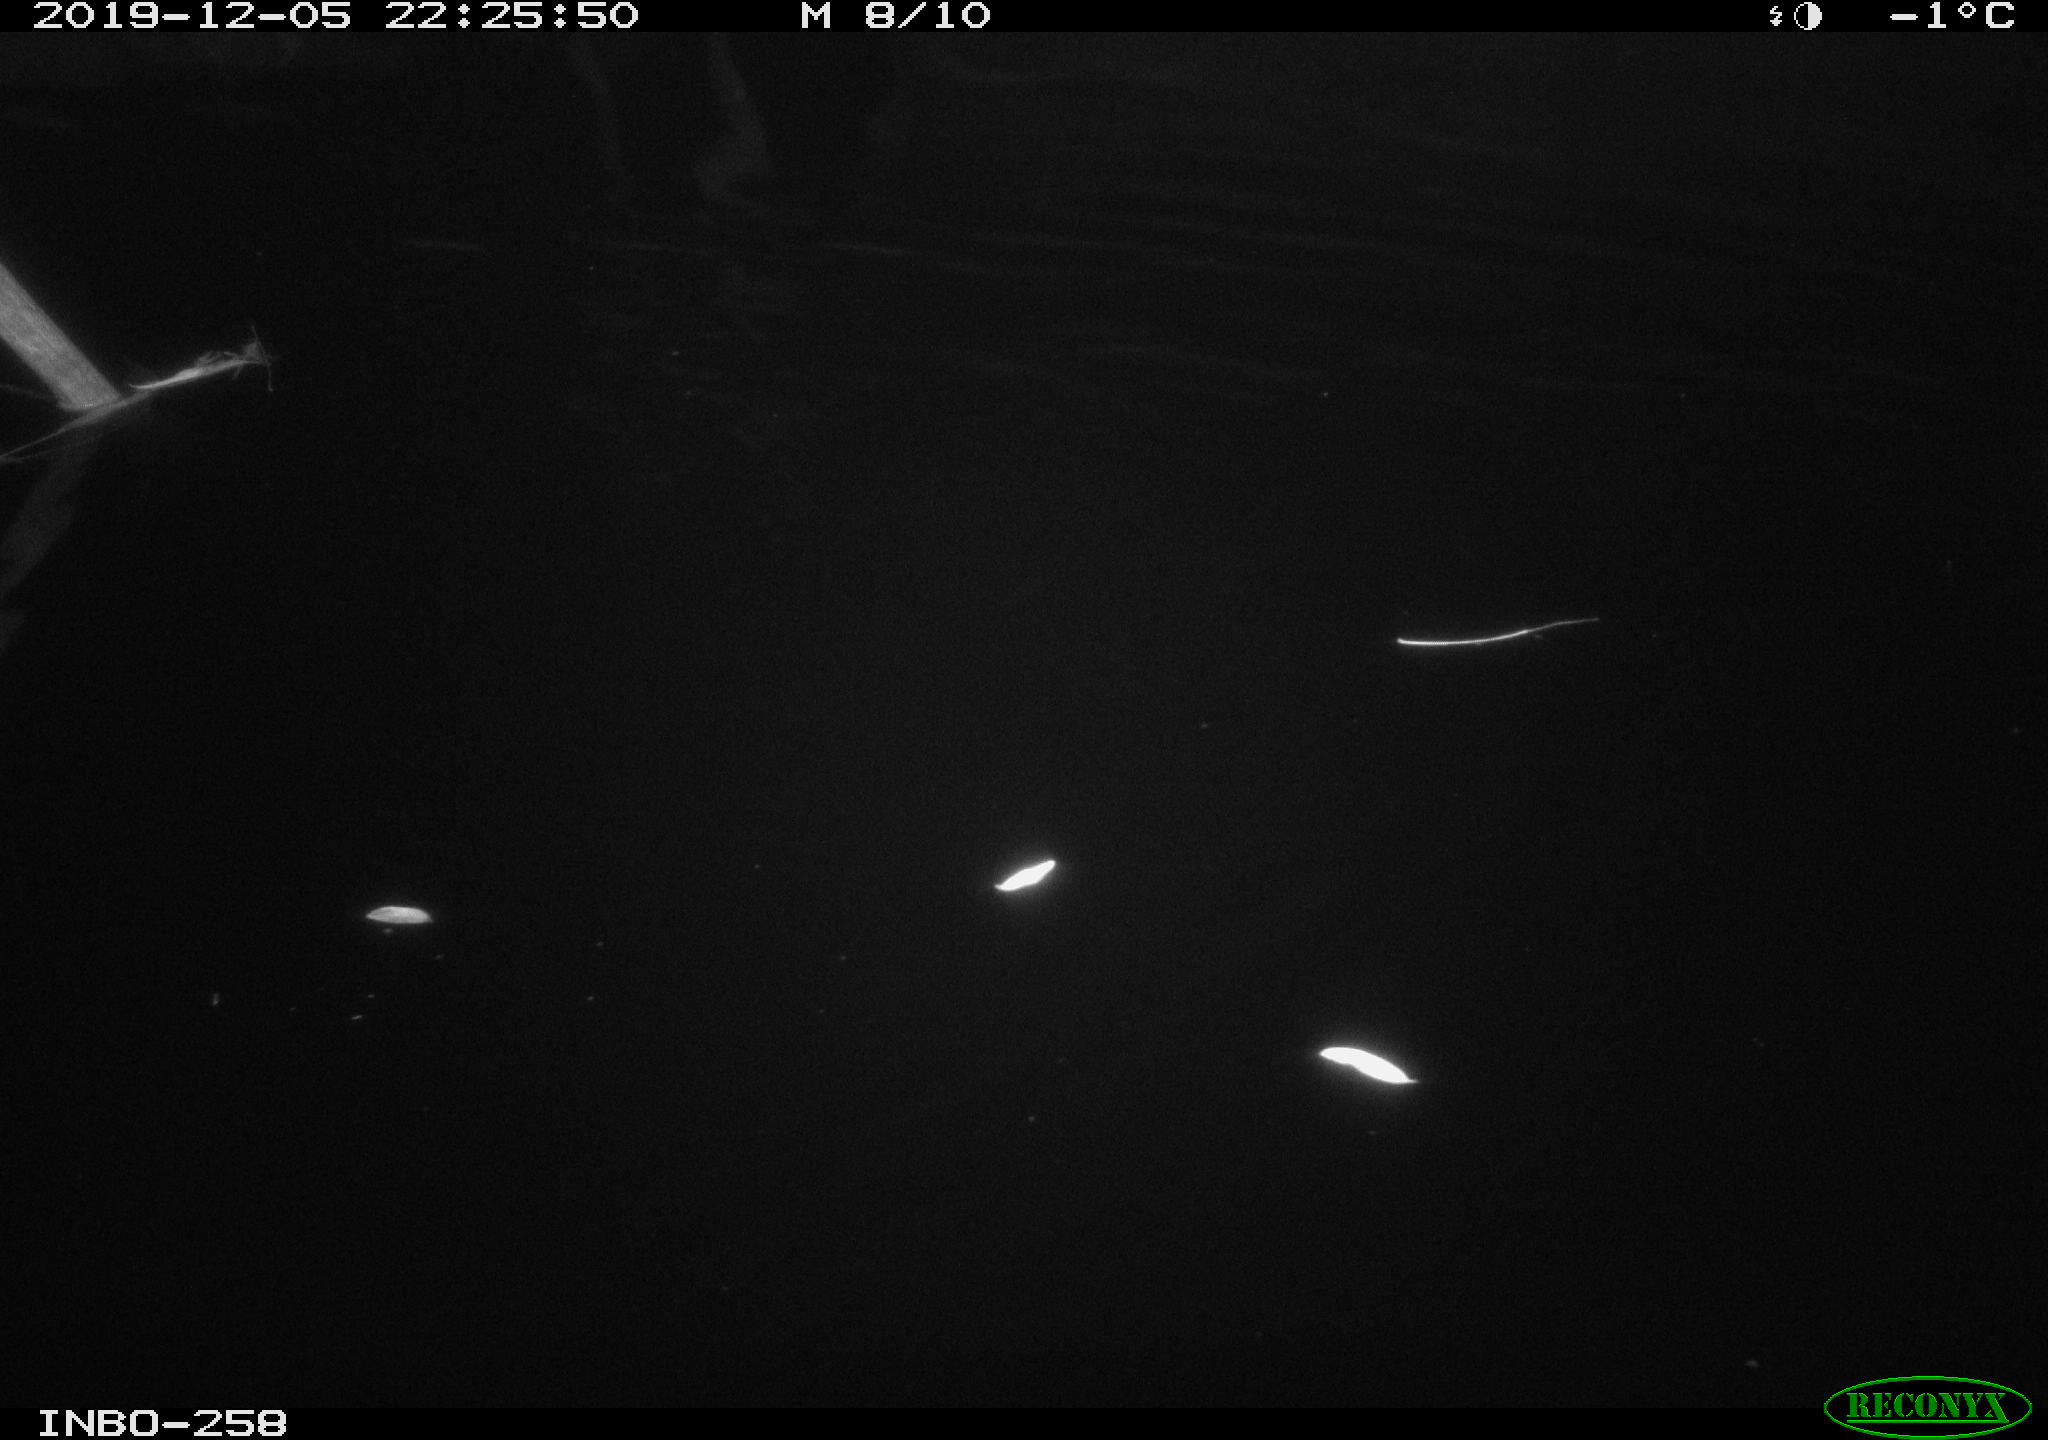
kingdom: Animalia
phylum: Chordata
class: Aves
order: Anseriformes
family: Anatidae
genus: Anas
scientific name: Anas platyrhynchos
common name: Mallard
